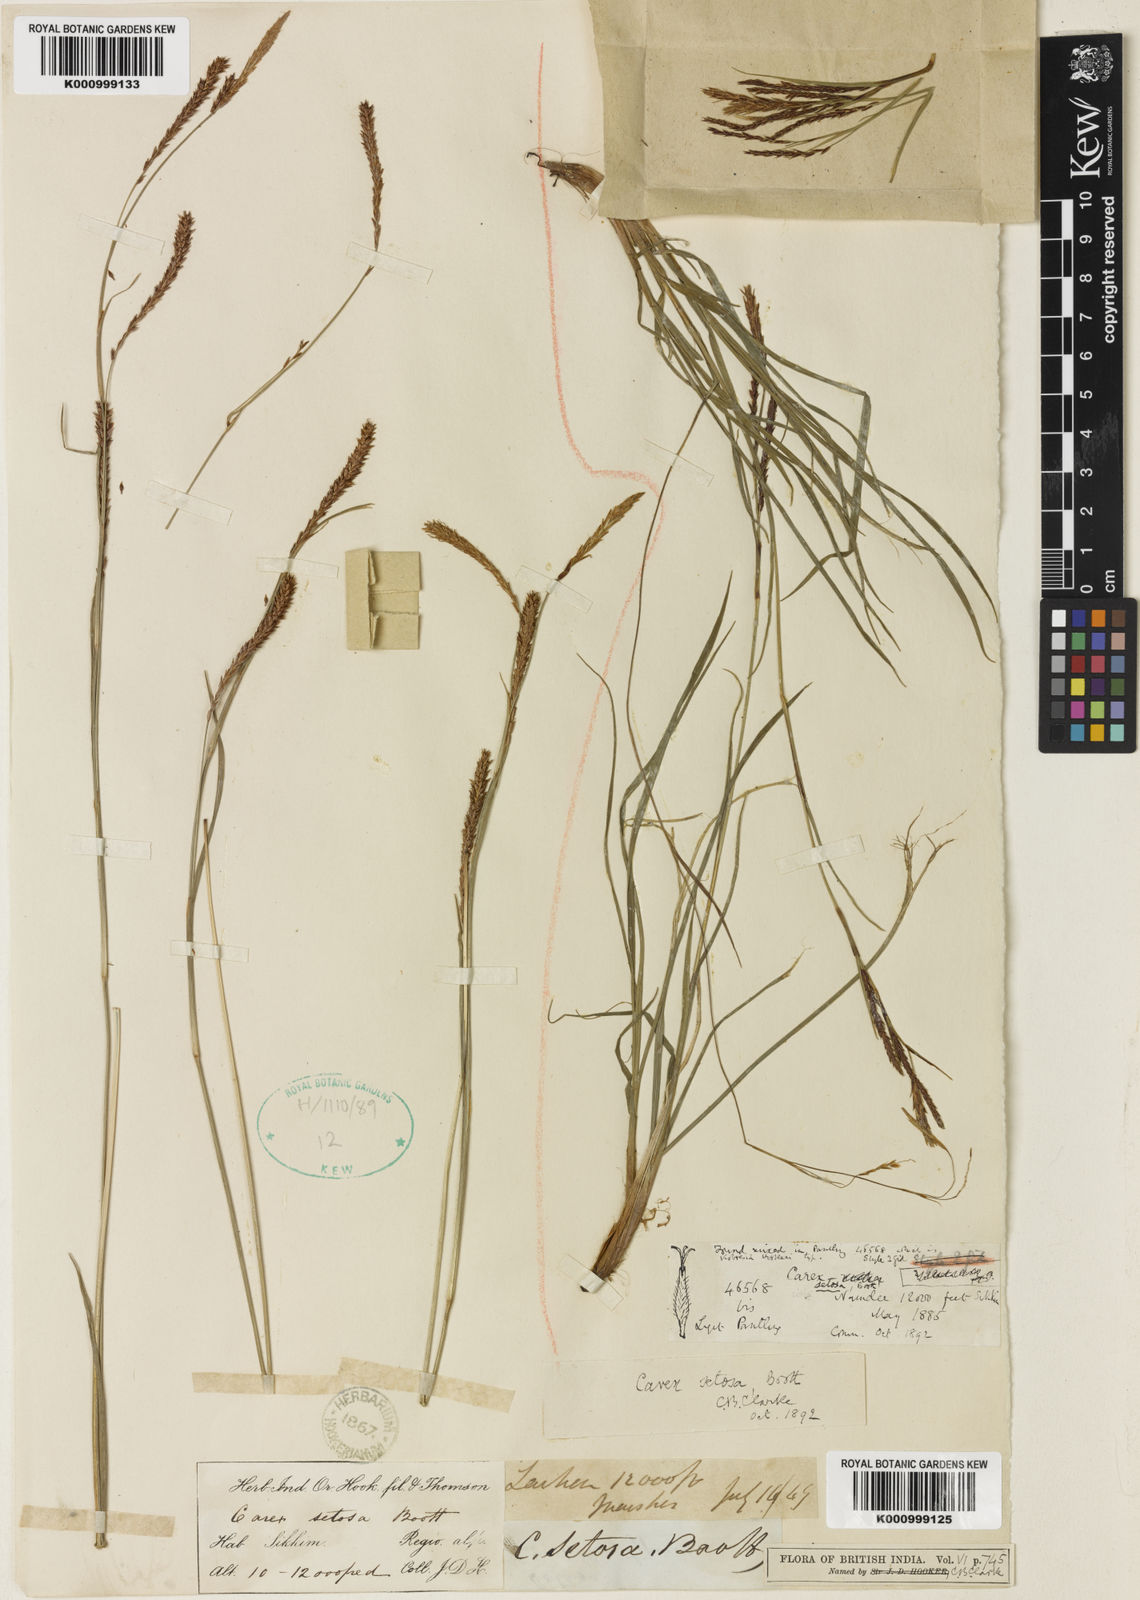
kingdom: Plantae
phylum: Tracheophyta
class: Liliopsida
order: Poales
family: Cyperaceae
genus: Carex
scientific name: Carex setosa
